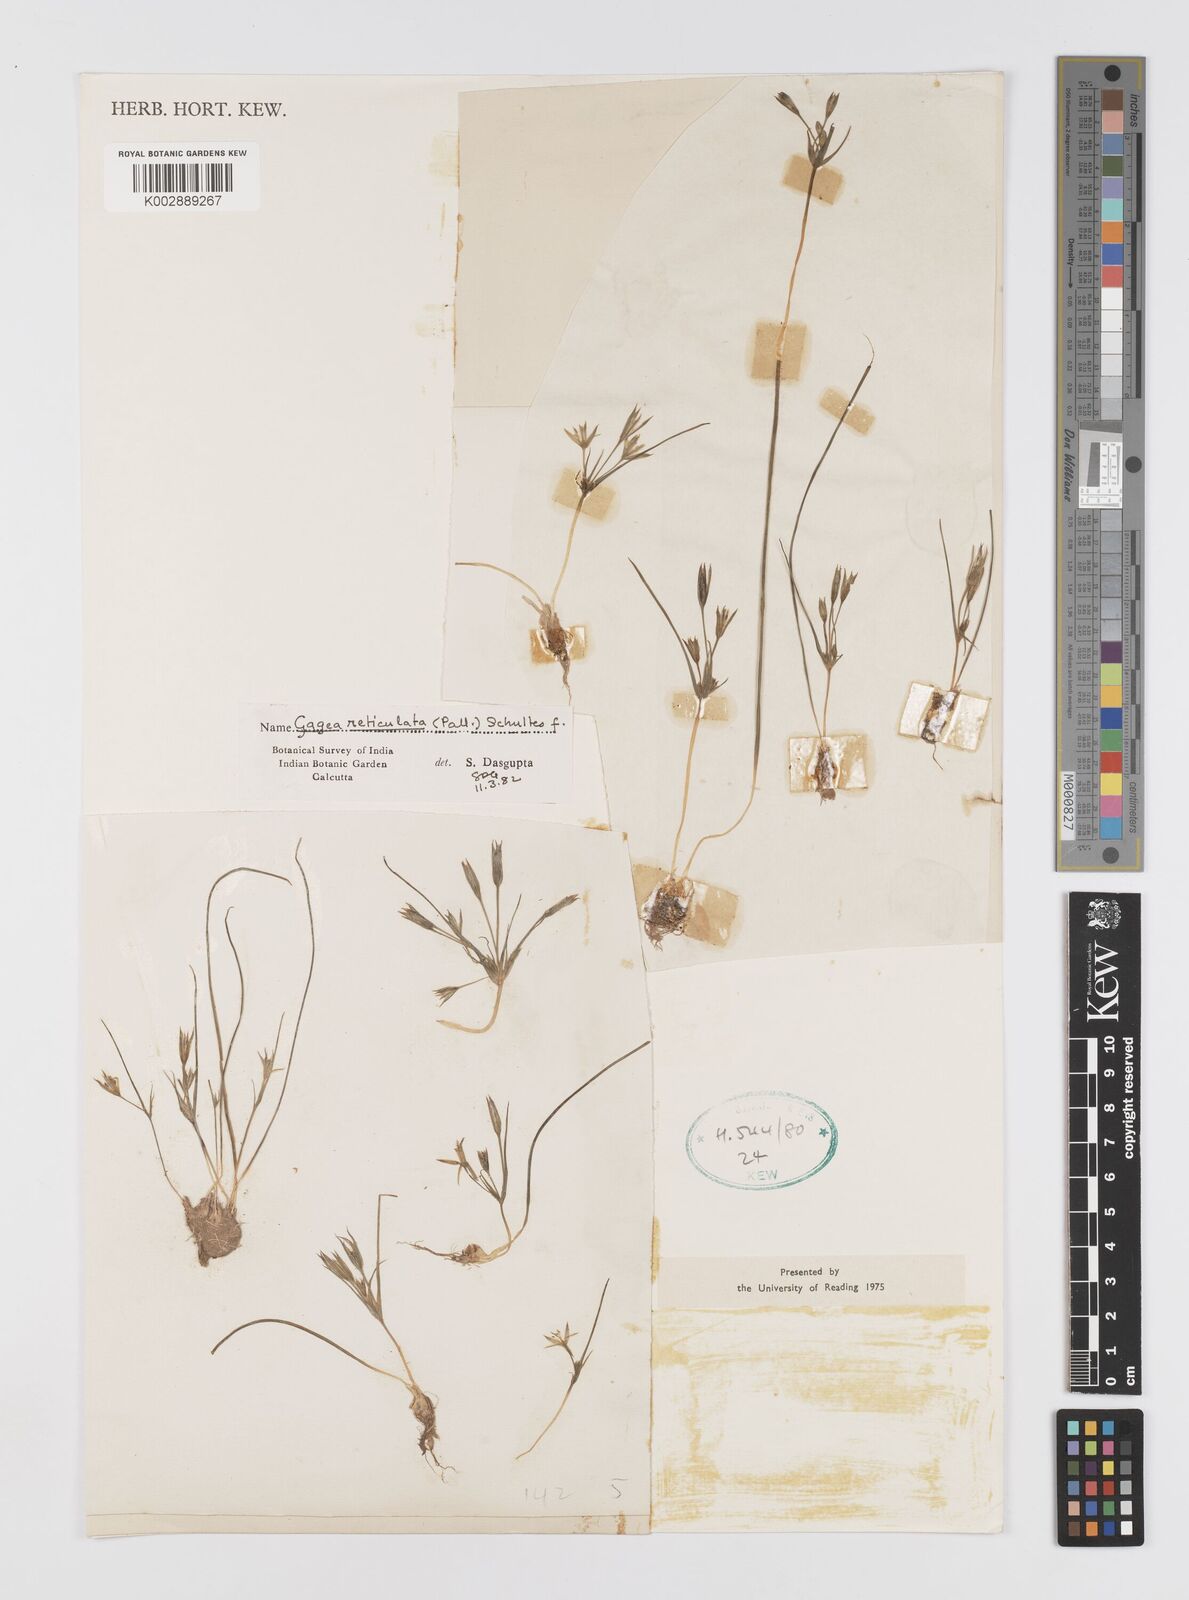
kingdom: Plantae
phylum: Tracheophyta
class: Liliopsida
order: Liliales
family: Liliaceae
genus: Gagea
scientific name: Gagea reticulata
